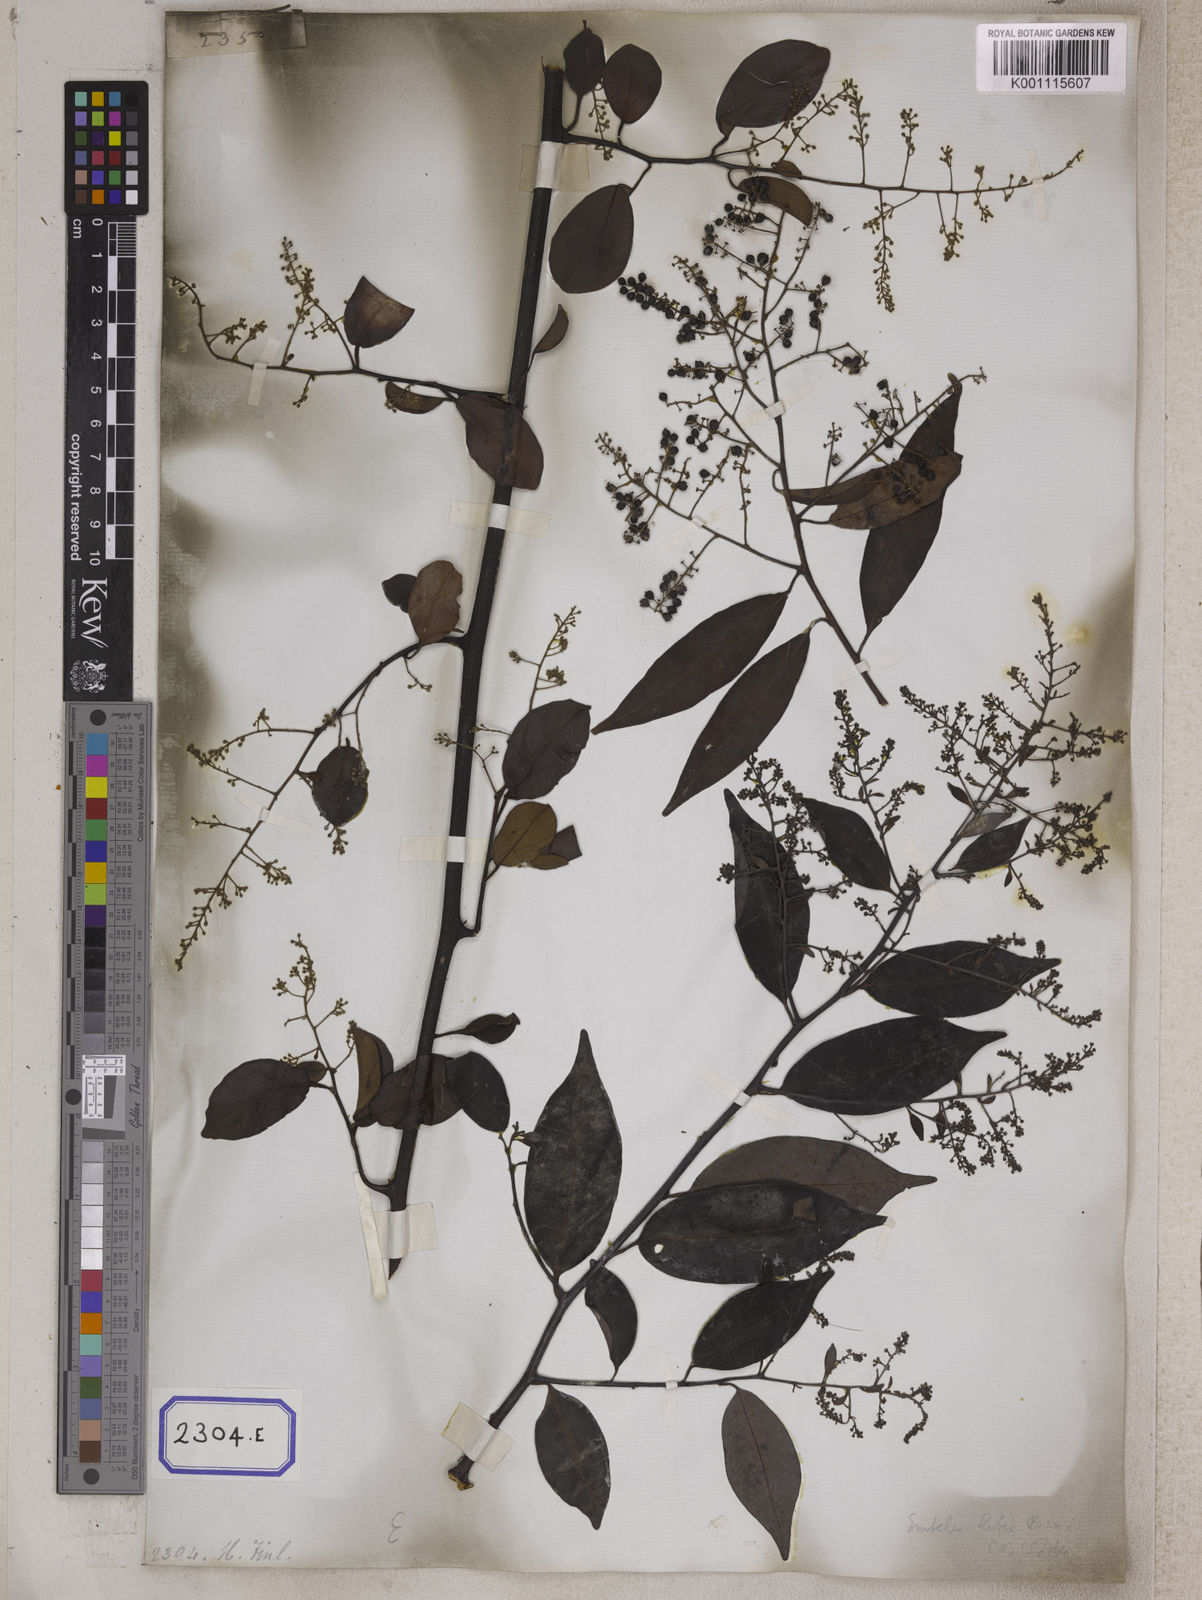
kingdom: Plantae
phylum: Tracheophyta
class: Magnoliopsida
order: Ericales
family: Primulaceae
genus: Embelia
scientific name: Embelia ribes
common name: Vidanga
